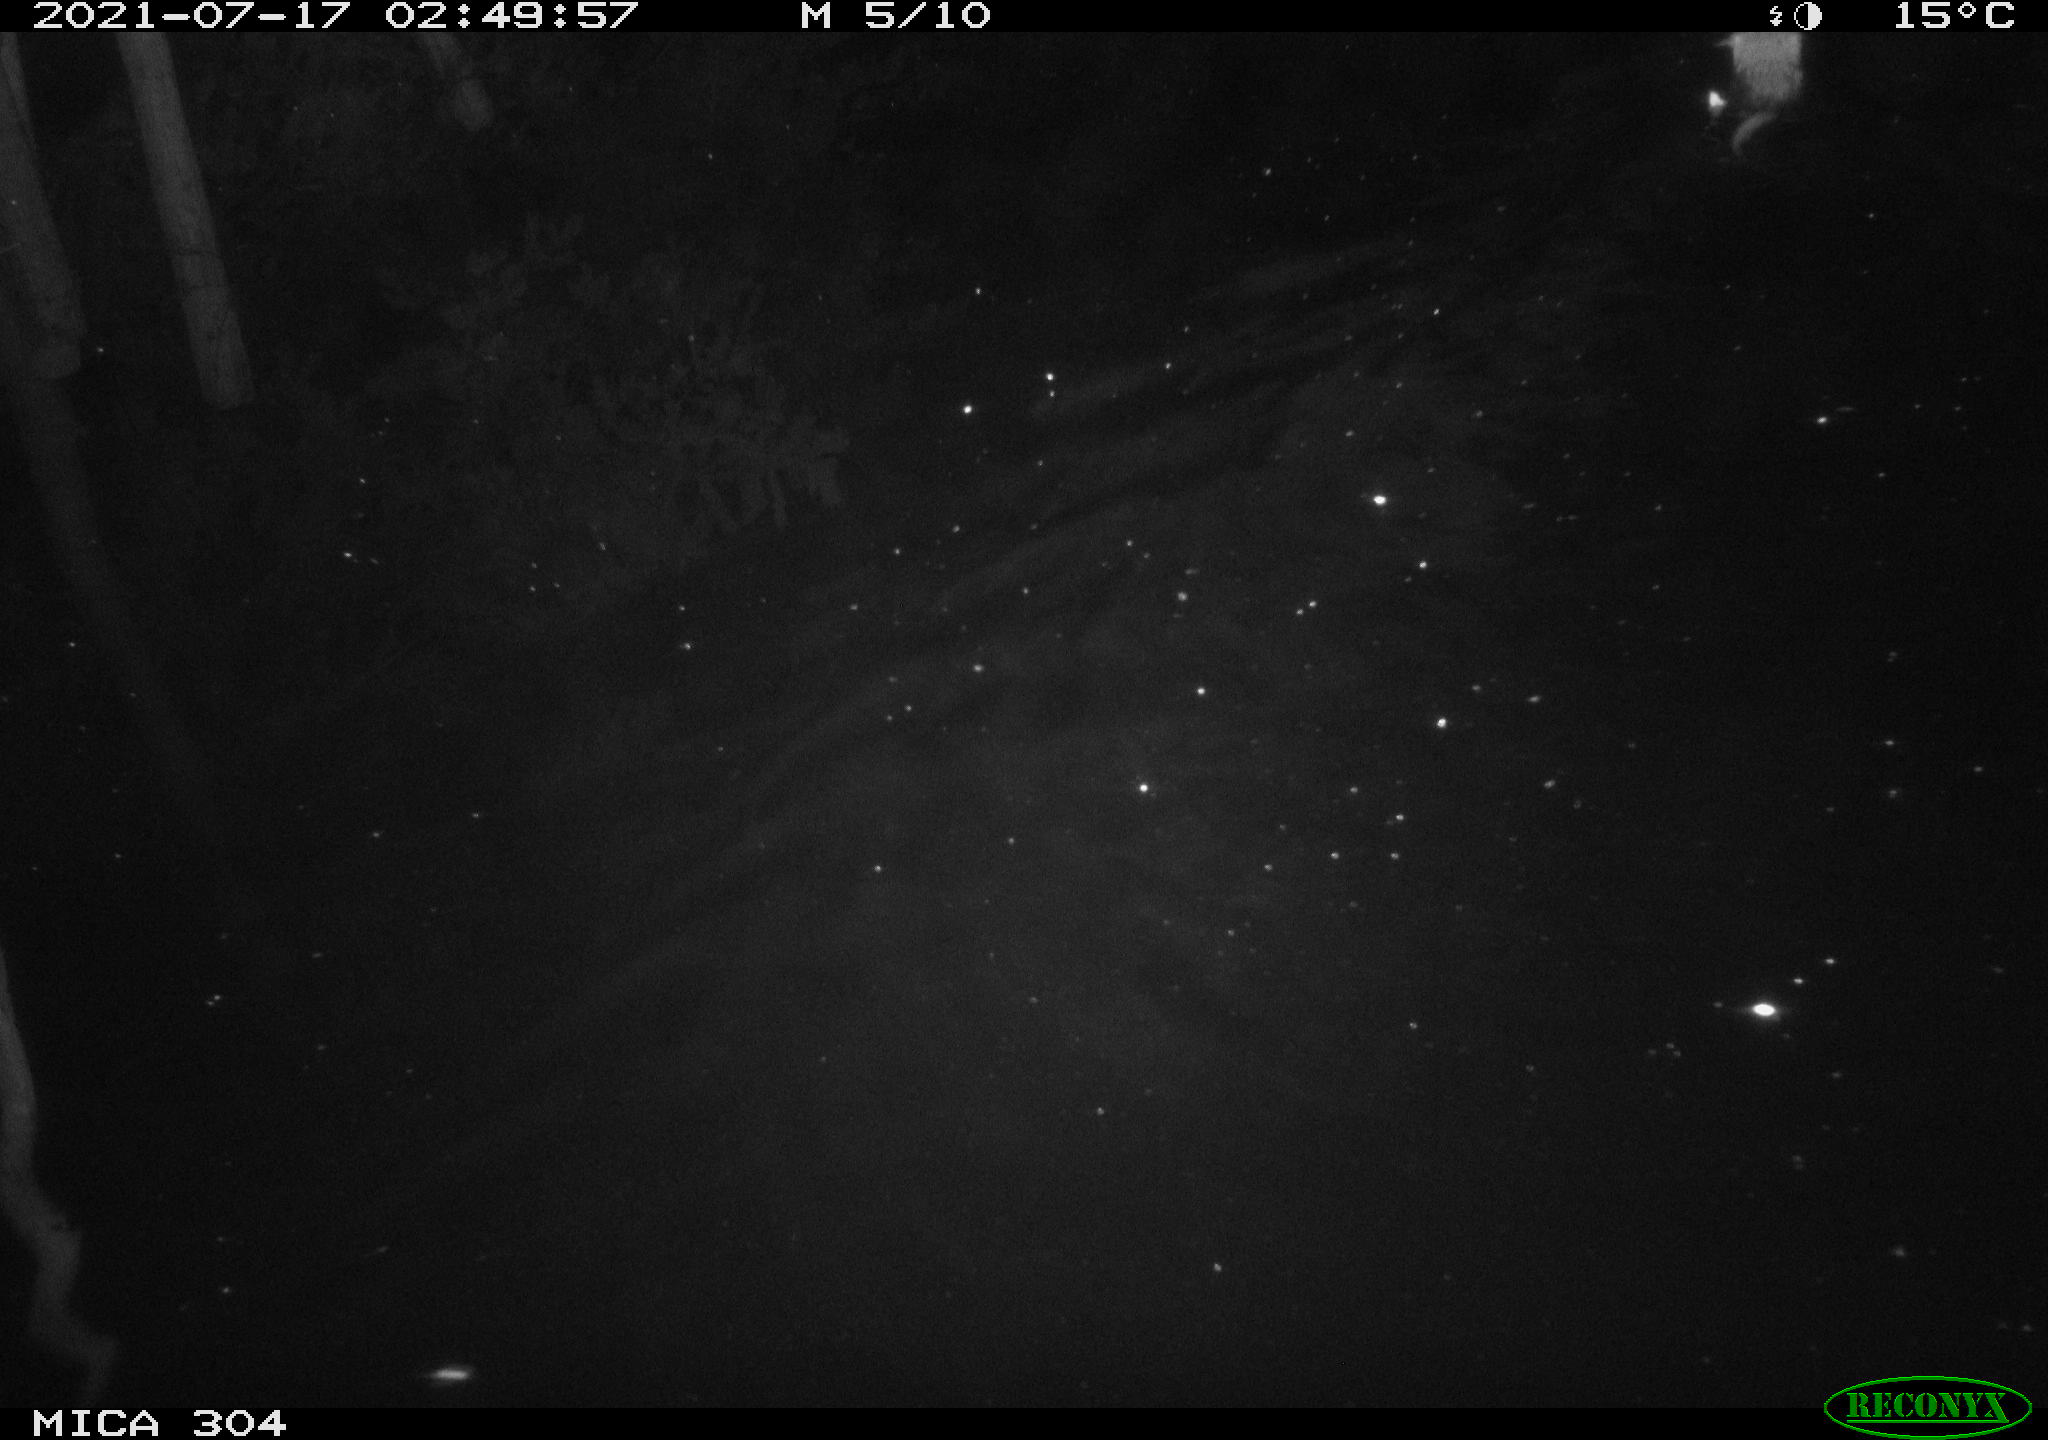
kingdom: Animalia
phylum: Chordata
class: Mammalia
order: Rodentia
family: Cricetidae
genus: Ondatra
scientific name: Ondatra zibethicus
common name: Muskrat
